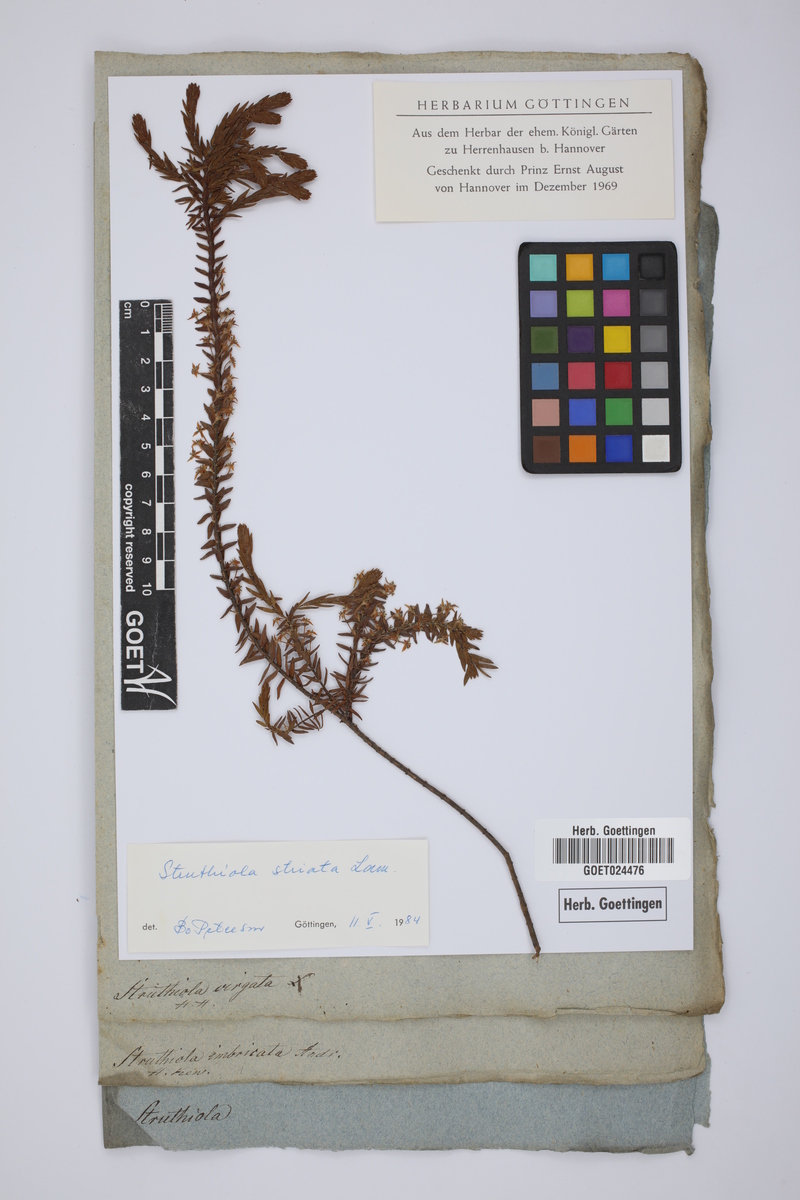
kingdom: Plantae
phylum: Tracheophyta
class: Magnoliopsida
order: Malvales
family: Thymelaeaceae
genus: Struthiola
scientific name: Struthiola striata
